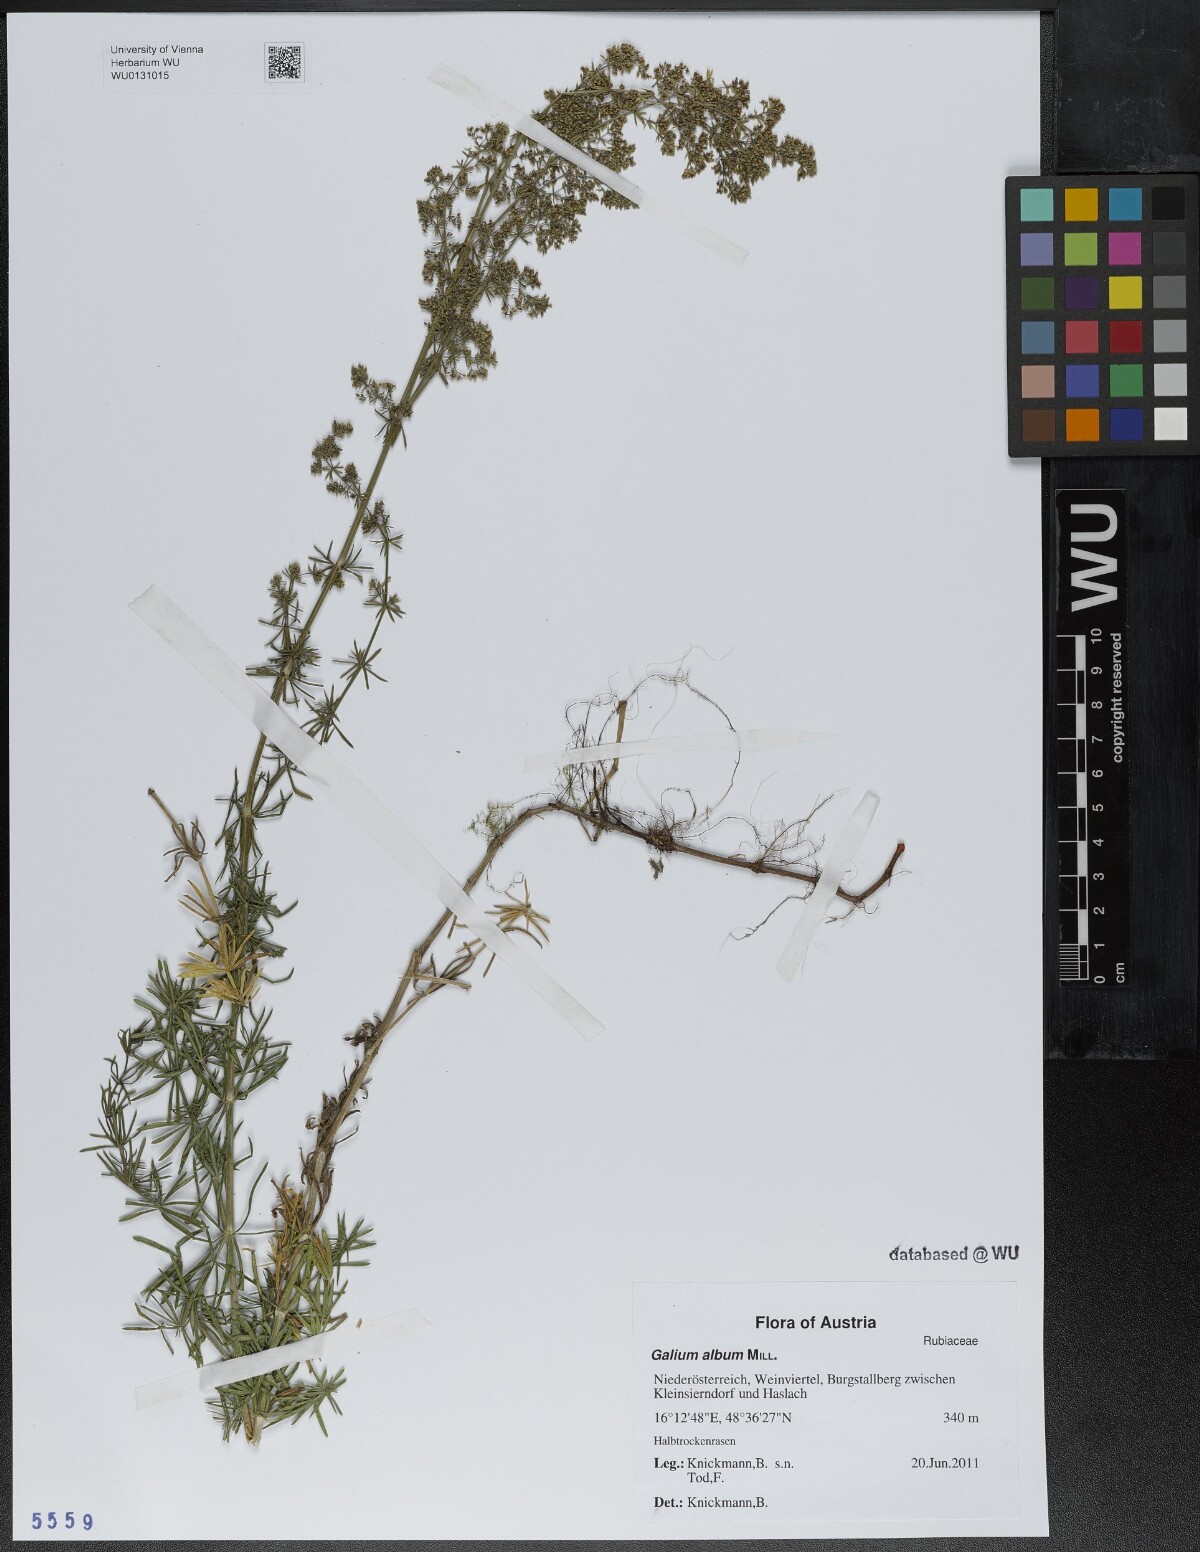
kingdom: Plantae
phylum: Tracheophyta
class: Magnoliopsida
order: Gentianales
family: Rubiaceae
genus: Galium
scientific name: Galium album
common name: White bedstraw
